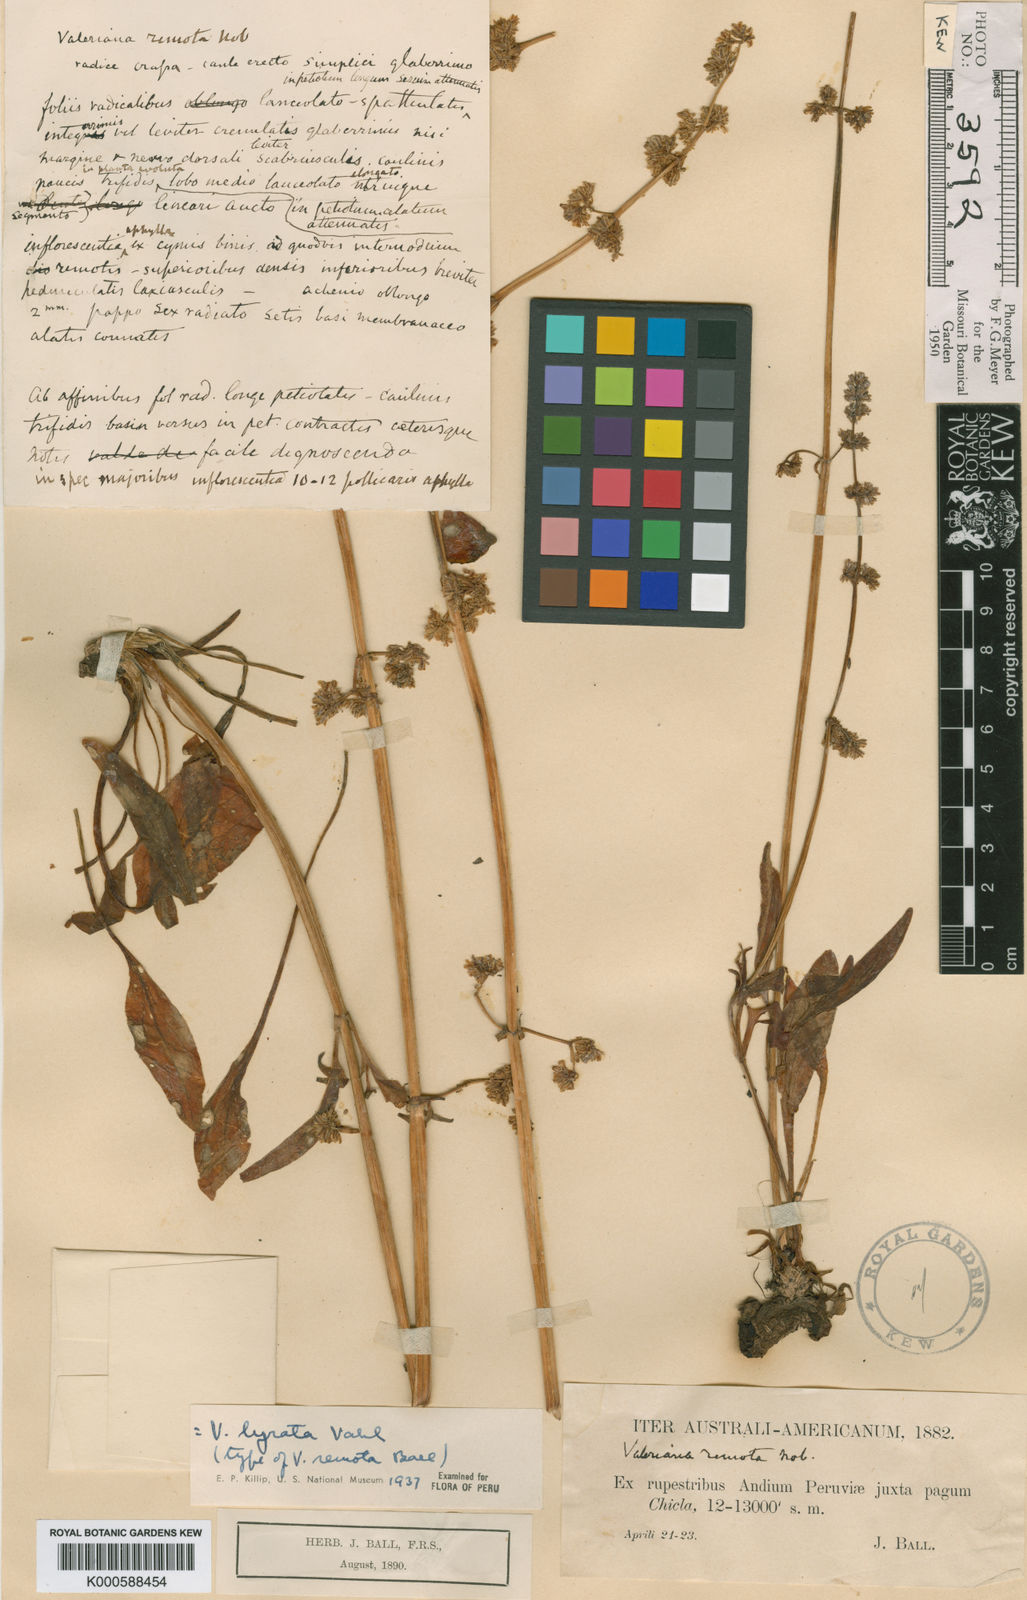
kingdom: Plantae
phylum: Tracheophyta
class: Magnoliopsida
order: Dipsacales
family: Caprifoliaceae
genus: Valeriana
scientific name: Valeriana lyrata
